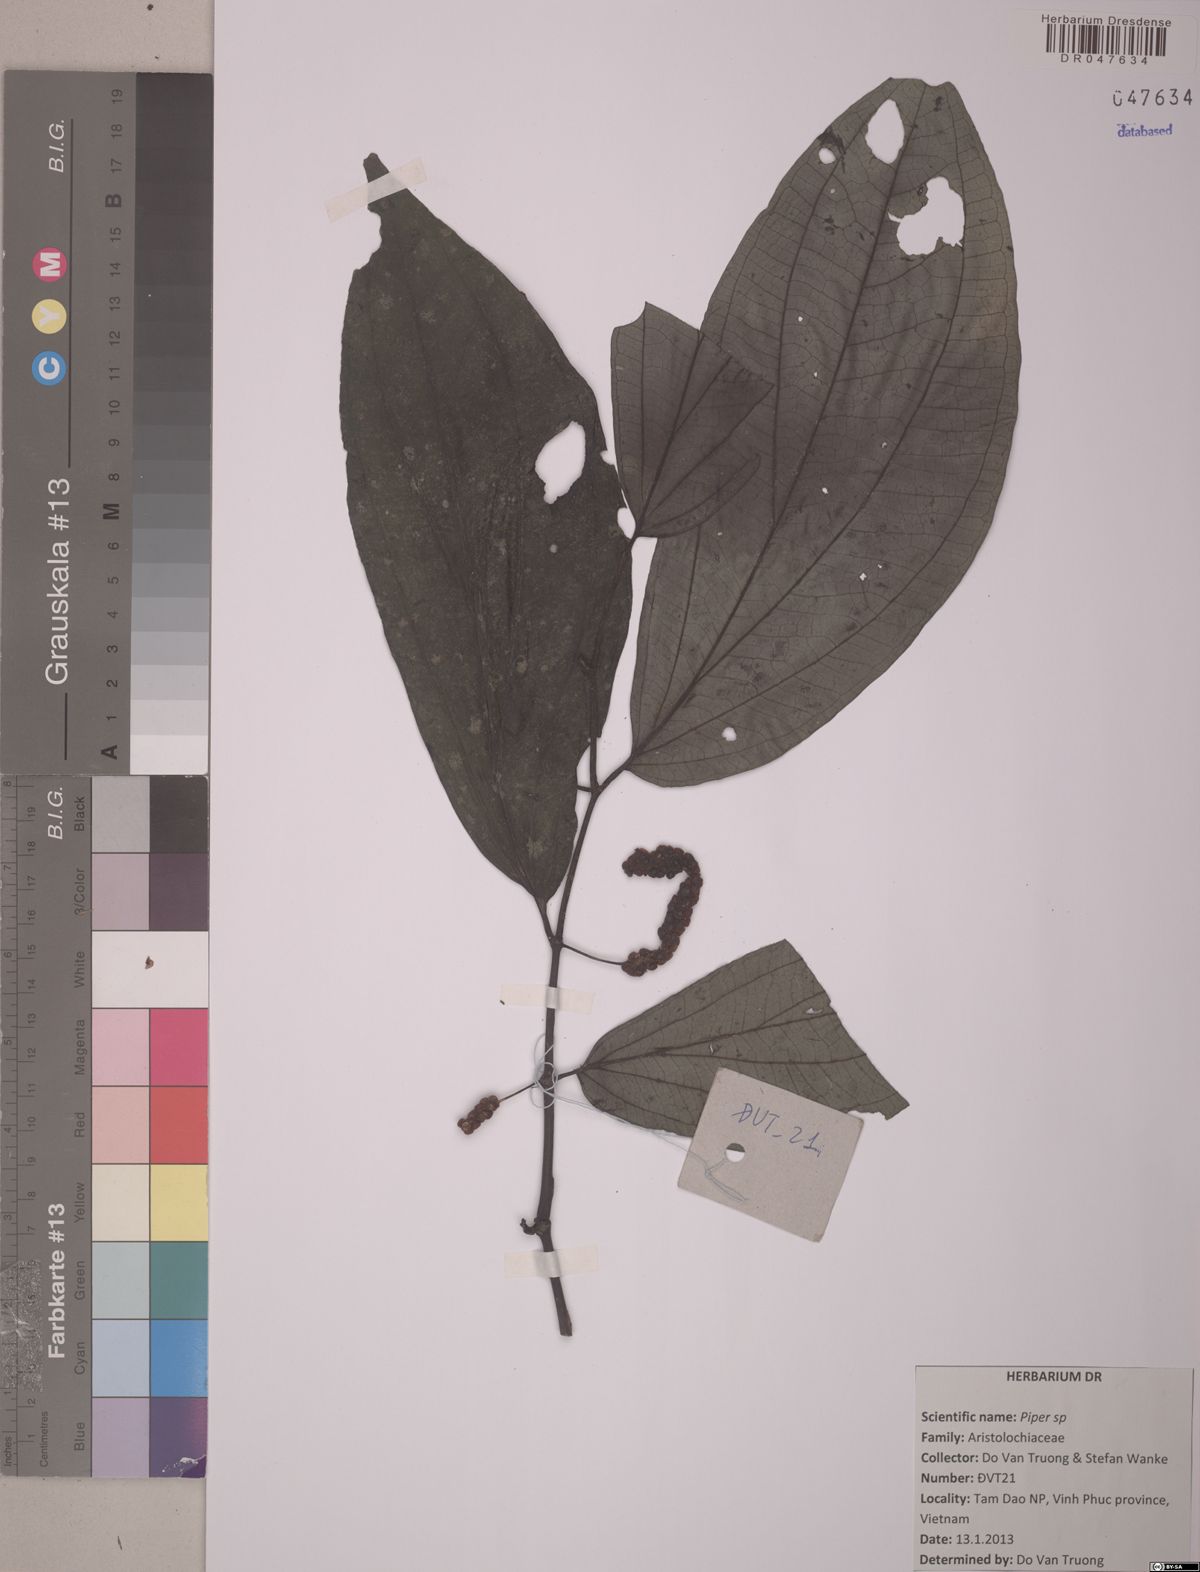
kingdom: Plantae
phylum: Tracheophyta
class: Magnoliopsida
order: Piperales
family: Piperaceae
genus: Piper
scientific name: Piper
